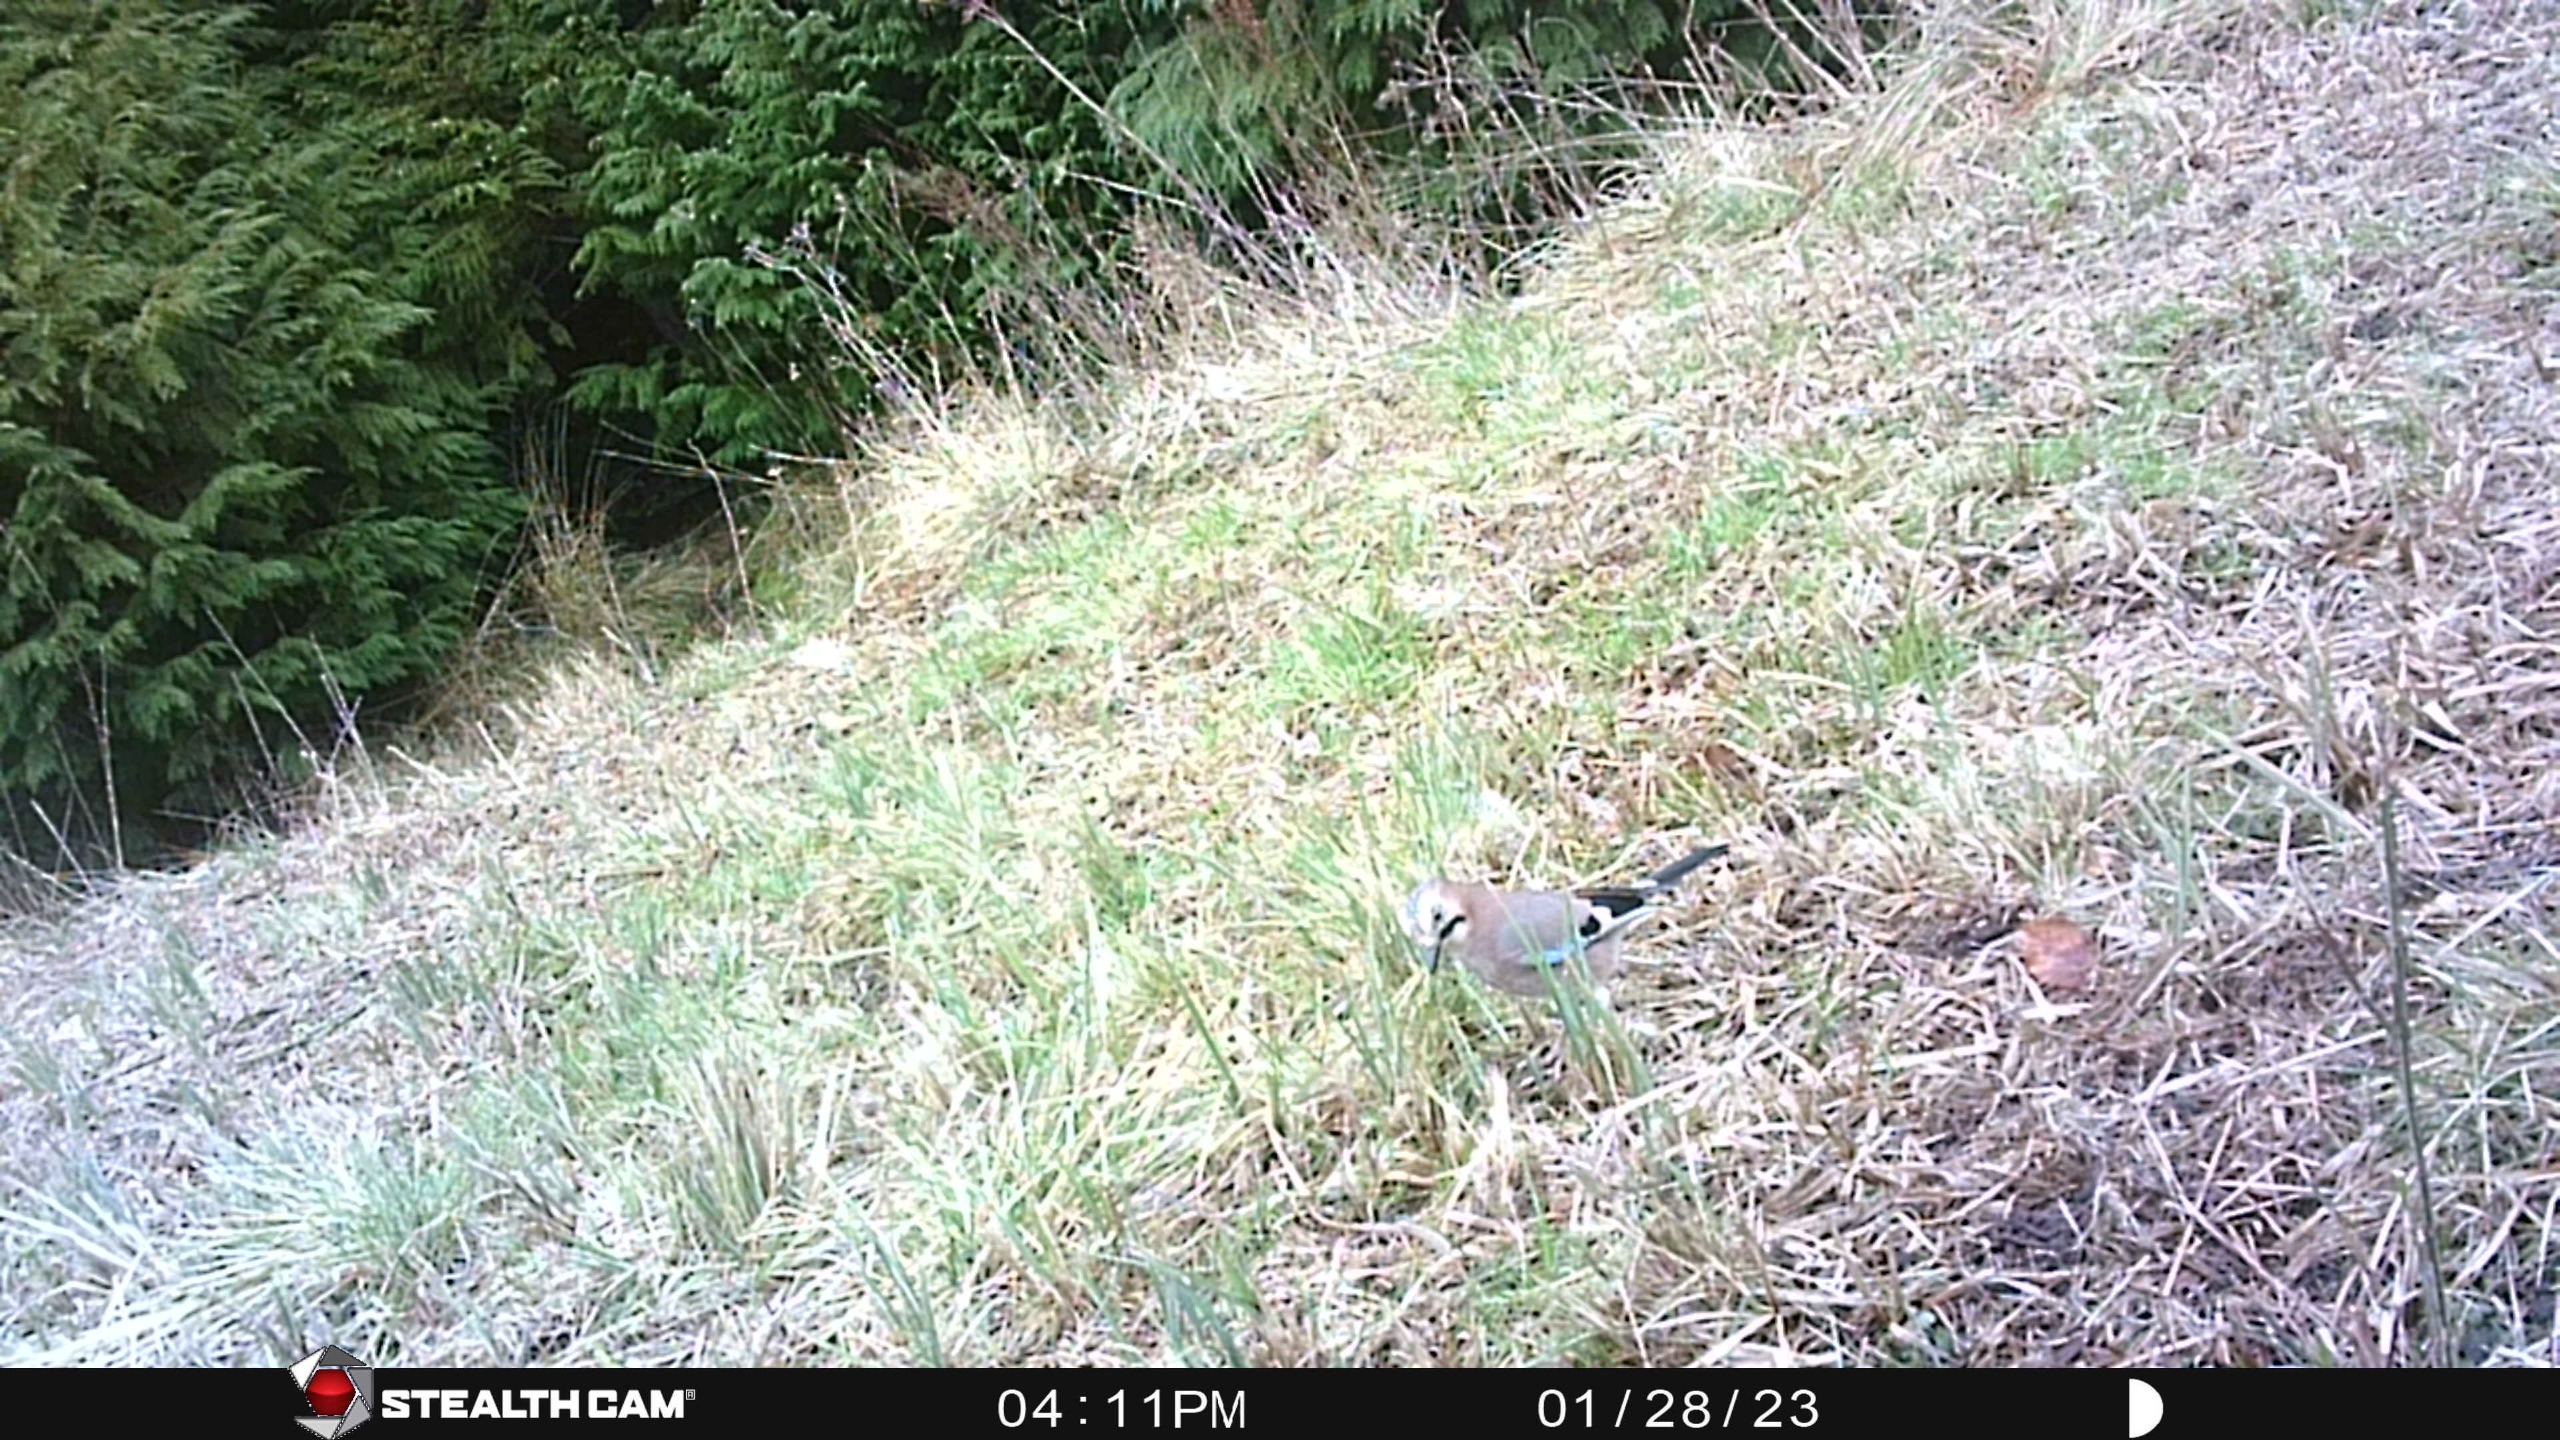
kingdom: Animalia
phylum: Chordata
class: Aves
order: Passeriformes
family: Corvidae
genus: Garrulus
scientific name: Garrulus glandarius
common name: Skovskade
